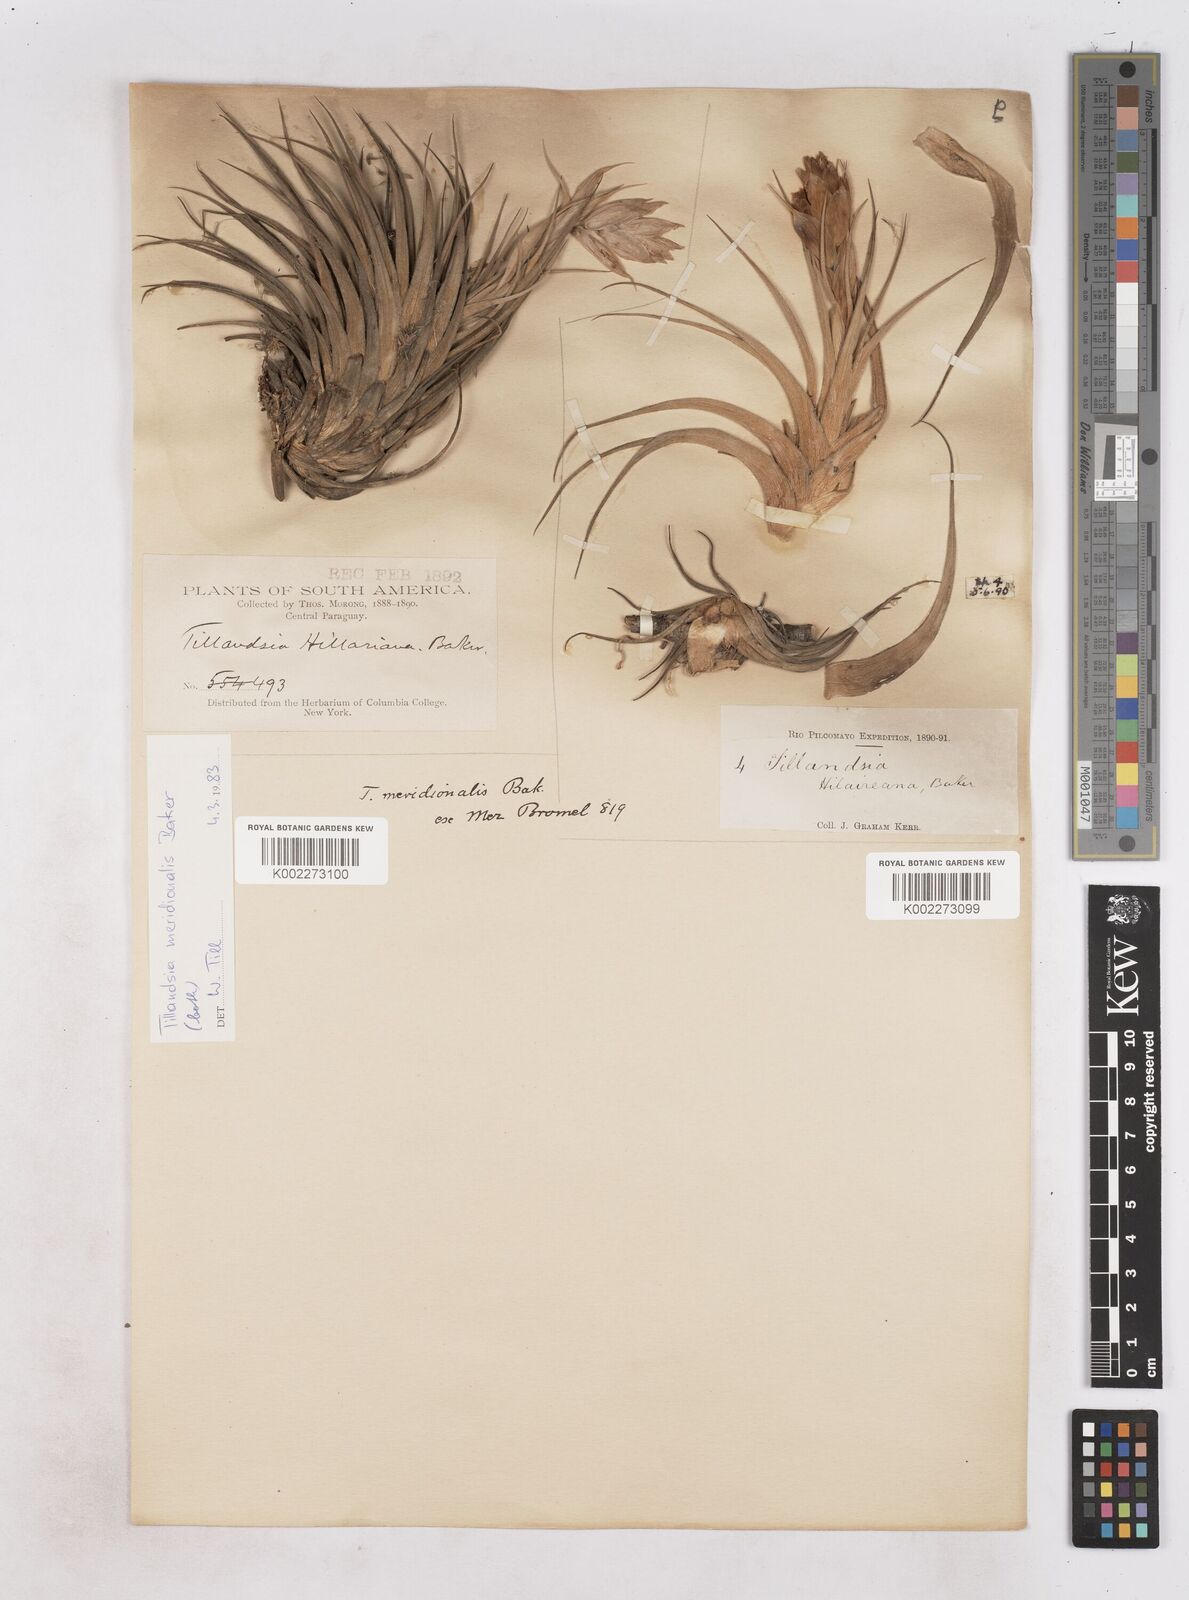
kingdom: Plantae
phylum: Tracheophyta
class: Liliopsida
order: Poales
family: Bromeliaceae
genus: Tillandsia
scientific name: Tillandsia recurvifolia
